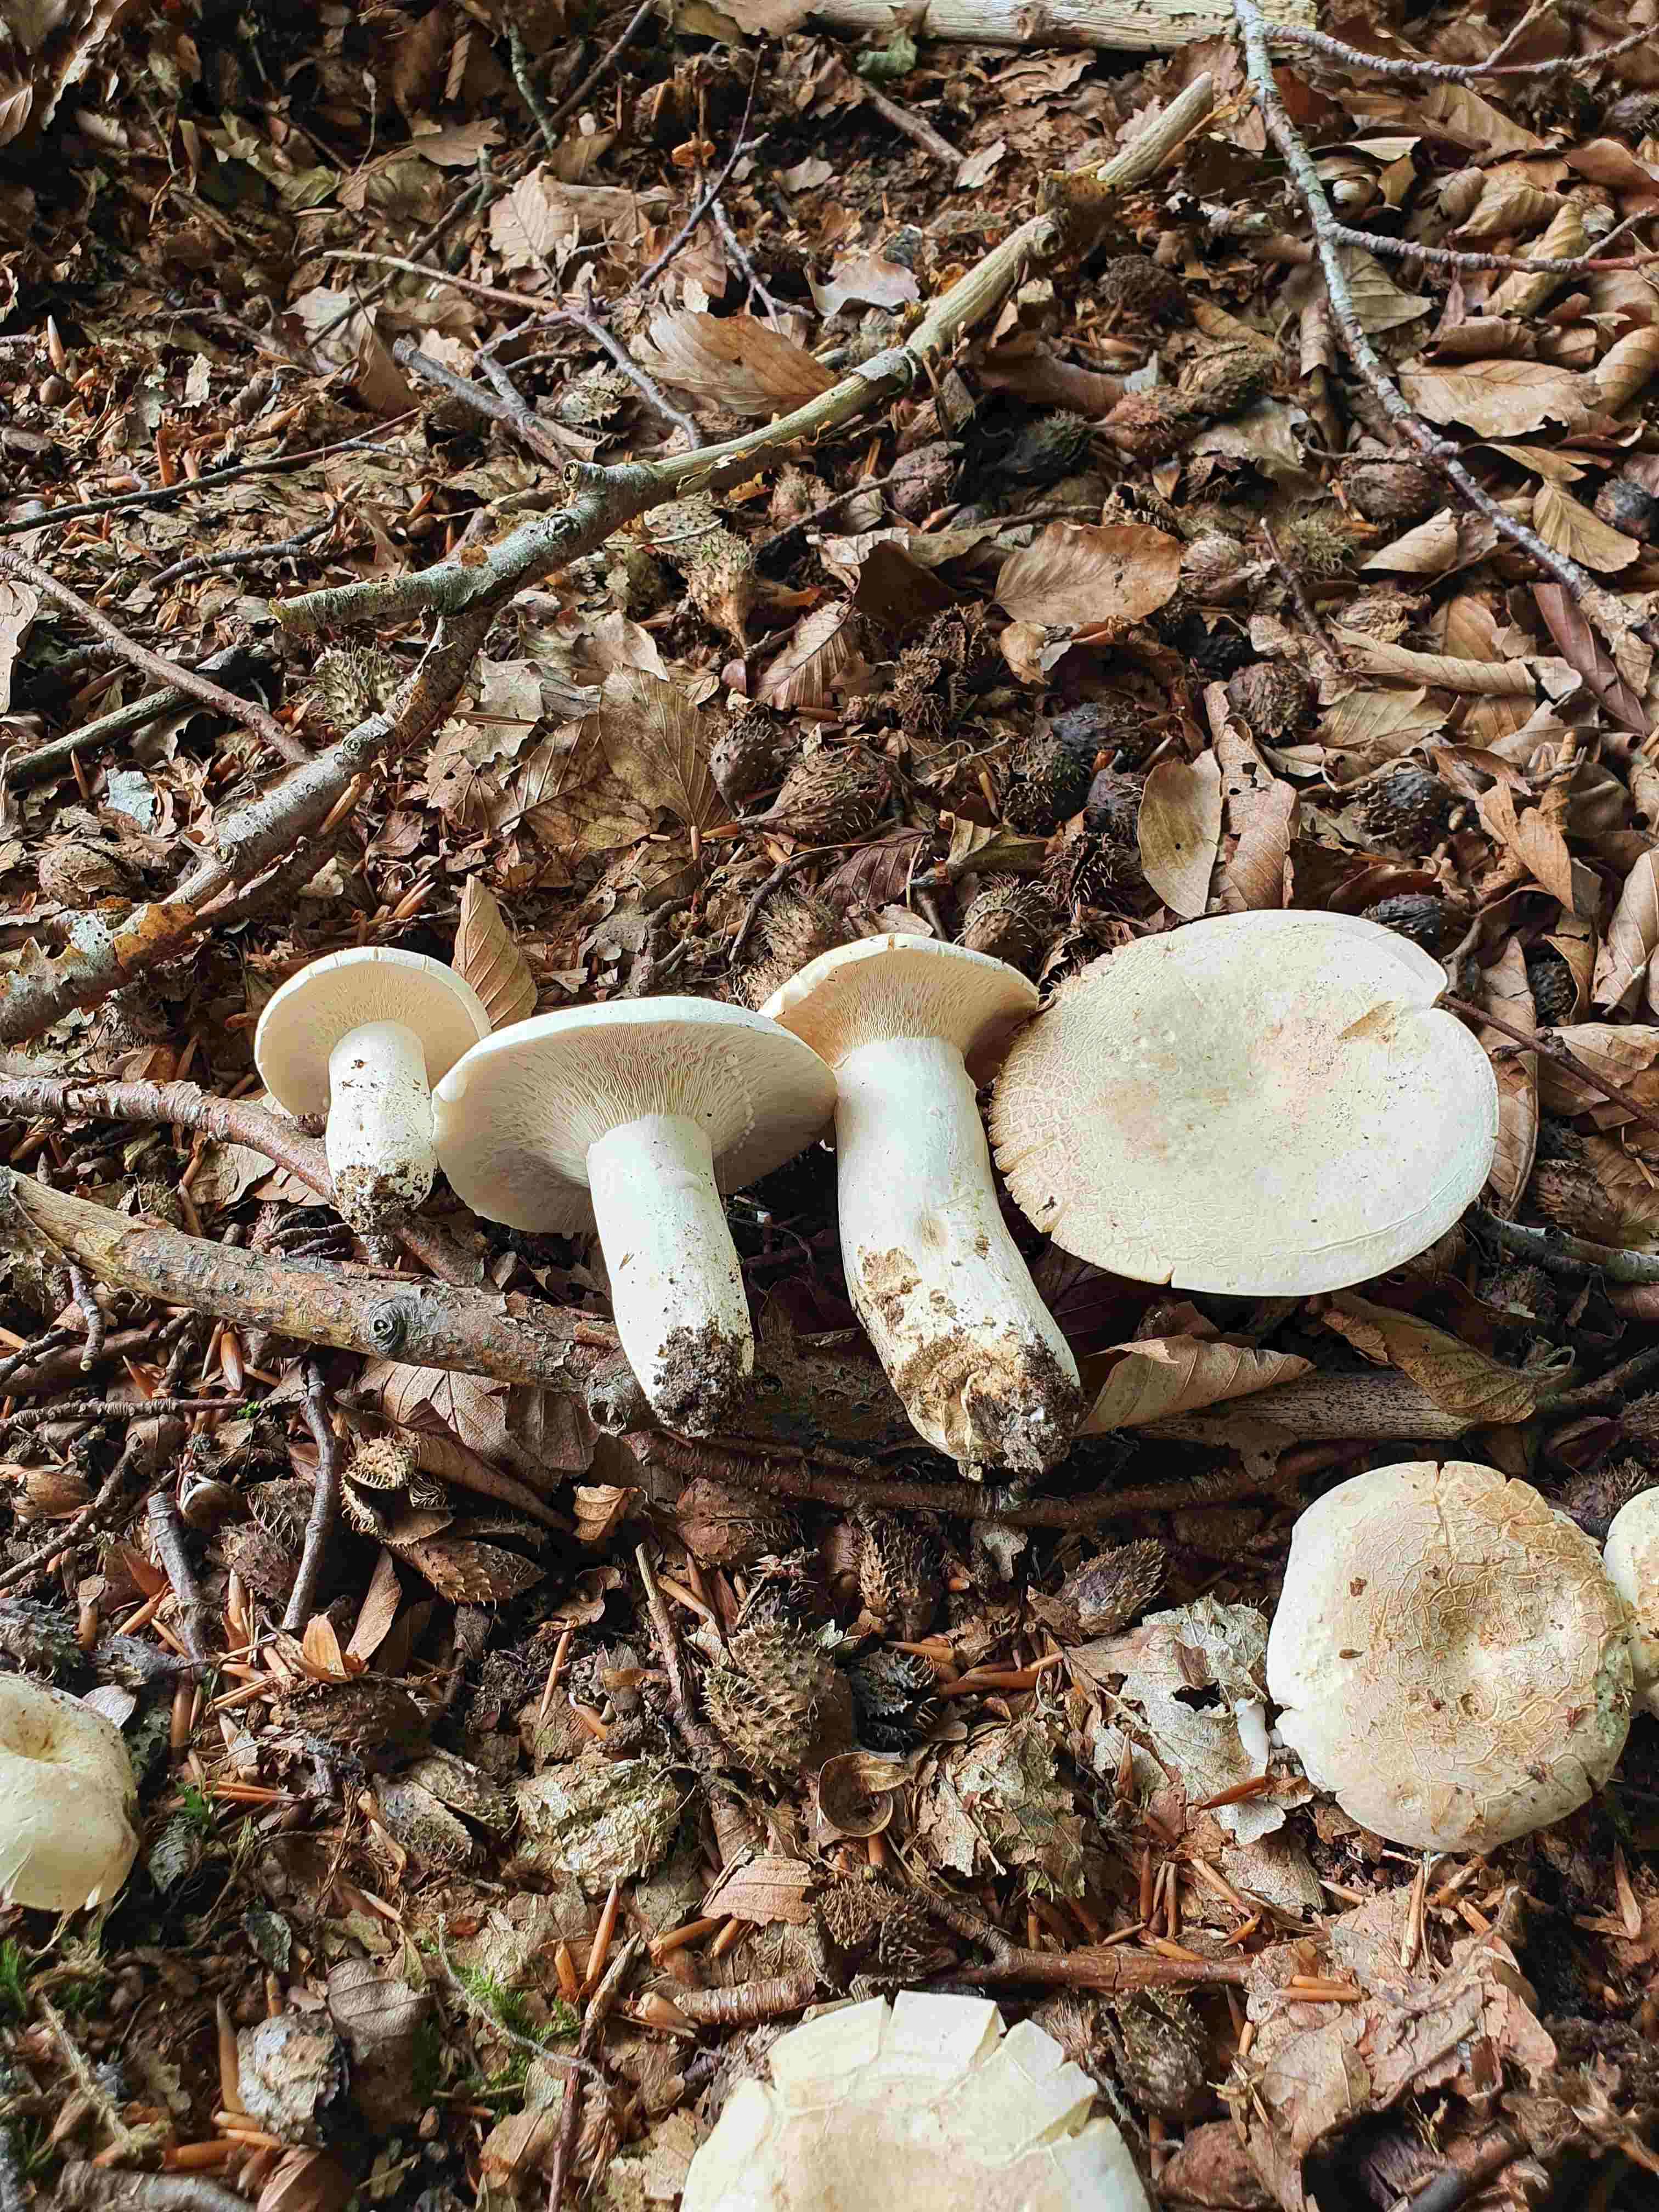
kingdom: Fungi
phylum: Basidiomycota
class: Agaricomycetes
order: Russulales
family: Russulaceae
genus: Lactifluus
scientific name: Lactifluus piperatus
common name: peber-mælkehat
